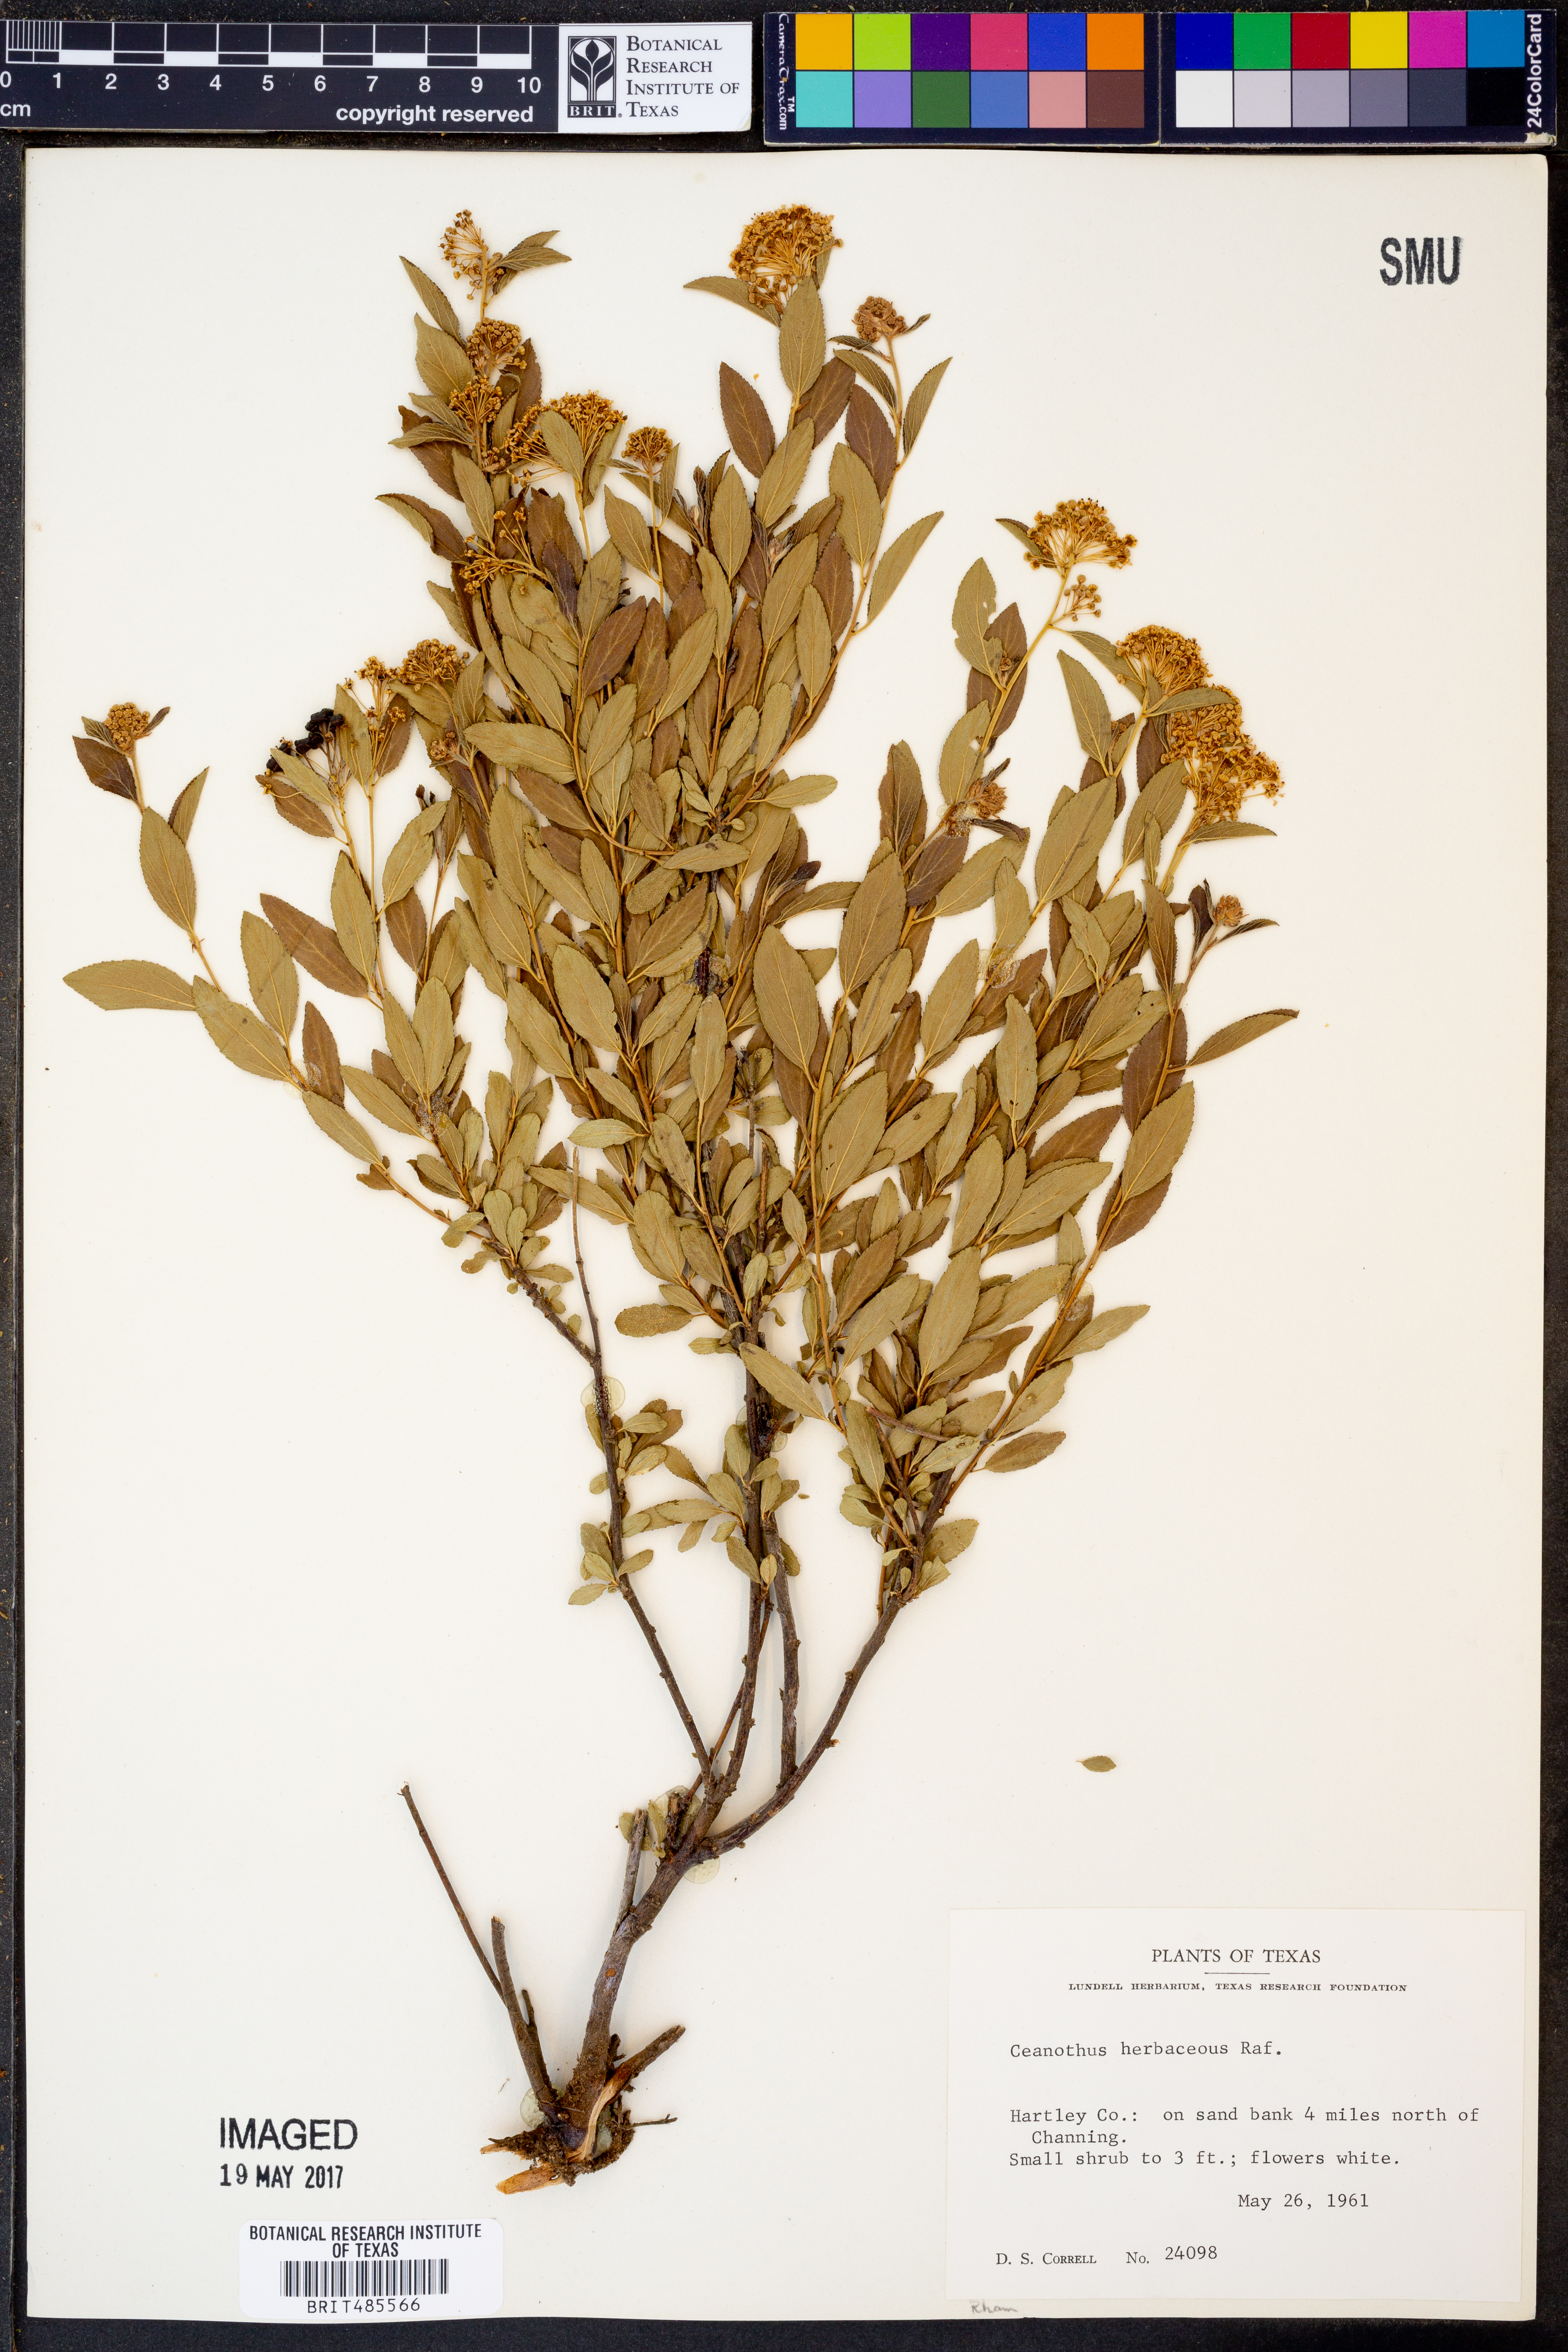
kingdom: Plantae
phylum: Tracheophyta
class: Magnoliopsida
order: Rosales
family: Rhamnaceae
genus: Ceanothus
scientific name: Ceanothus herbaceus
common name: Inland ceanothus
